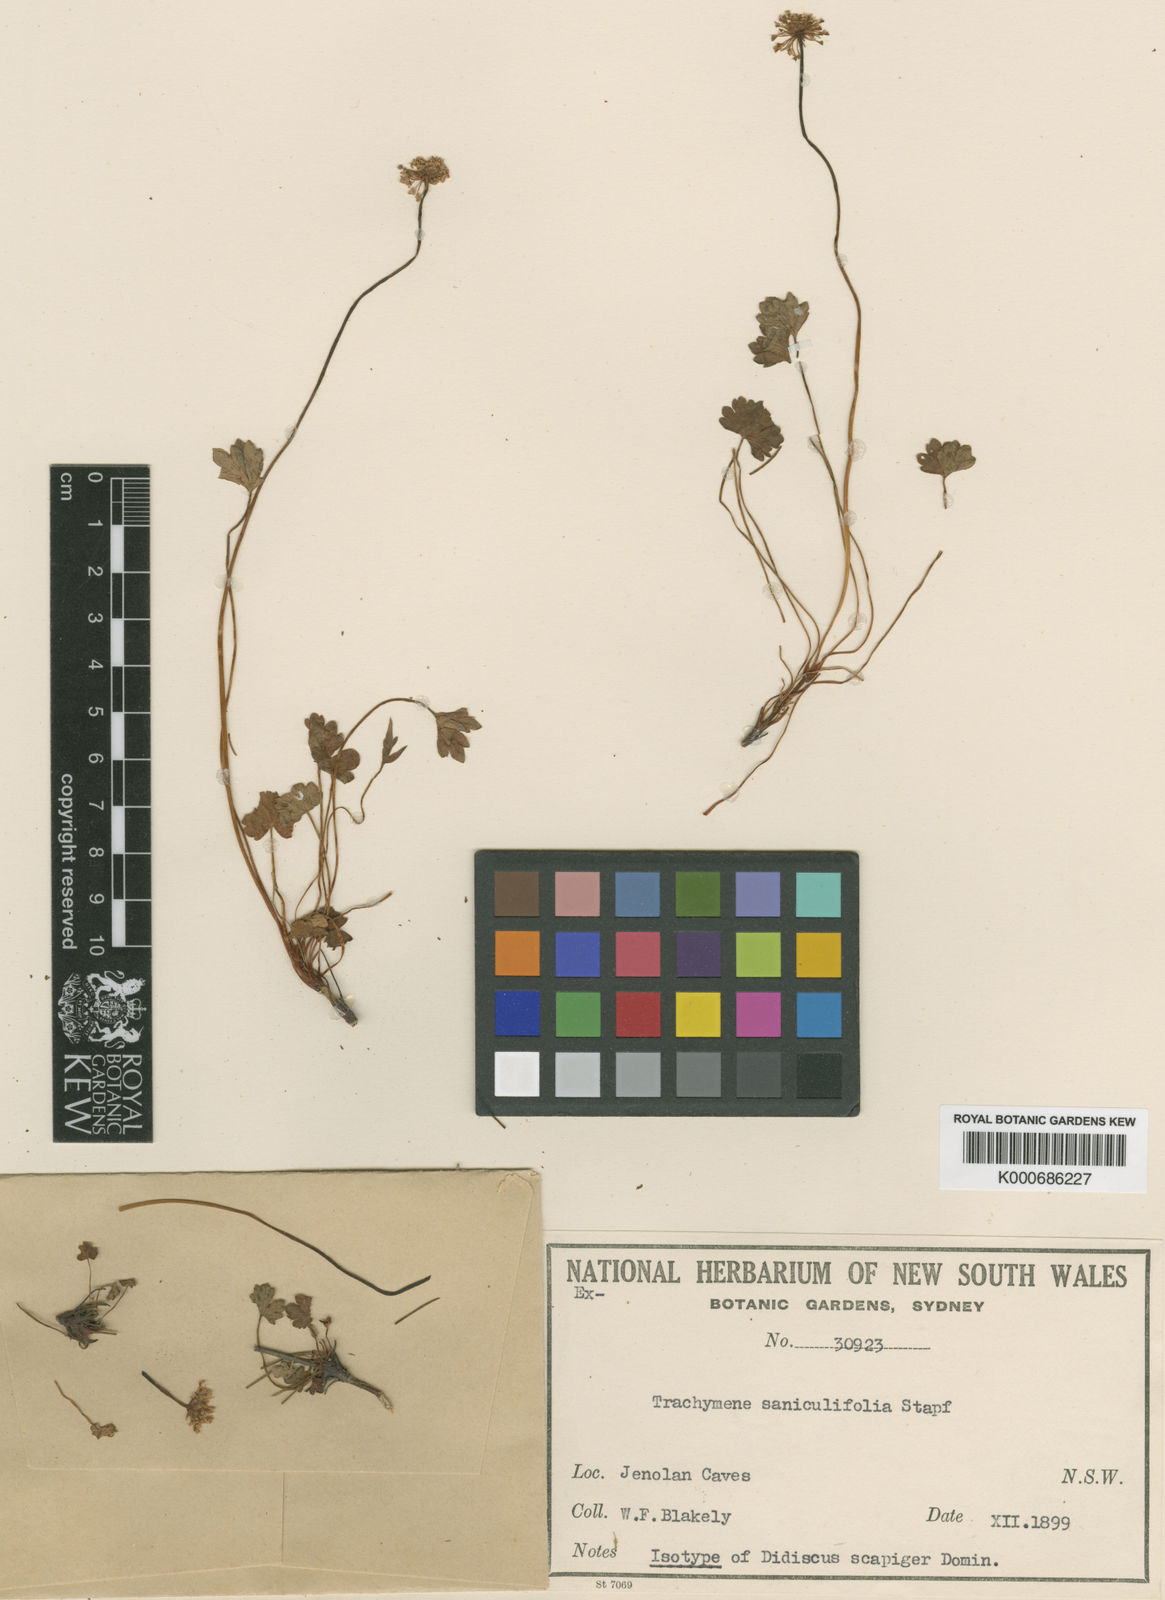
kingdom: Plantae
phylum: Tracheophyta
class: Magnoliopsida
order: Apiales
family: Araliaceae
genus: Trachymene
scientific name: Trachymene saniculifolia
